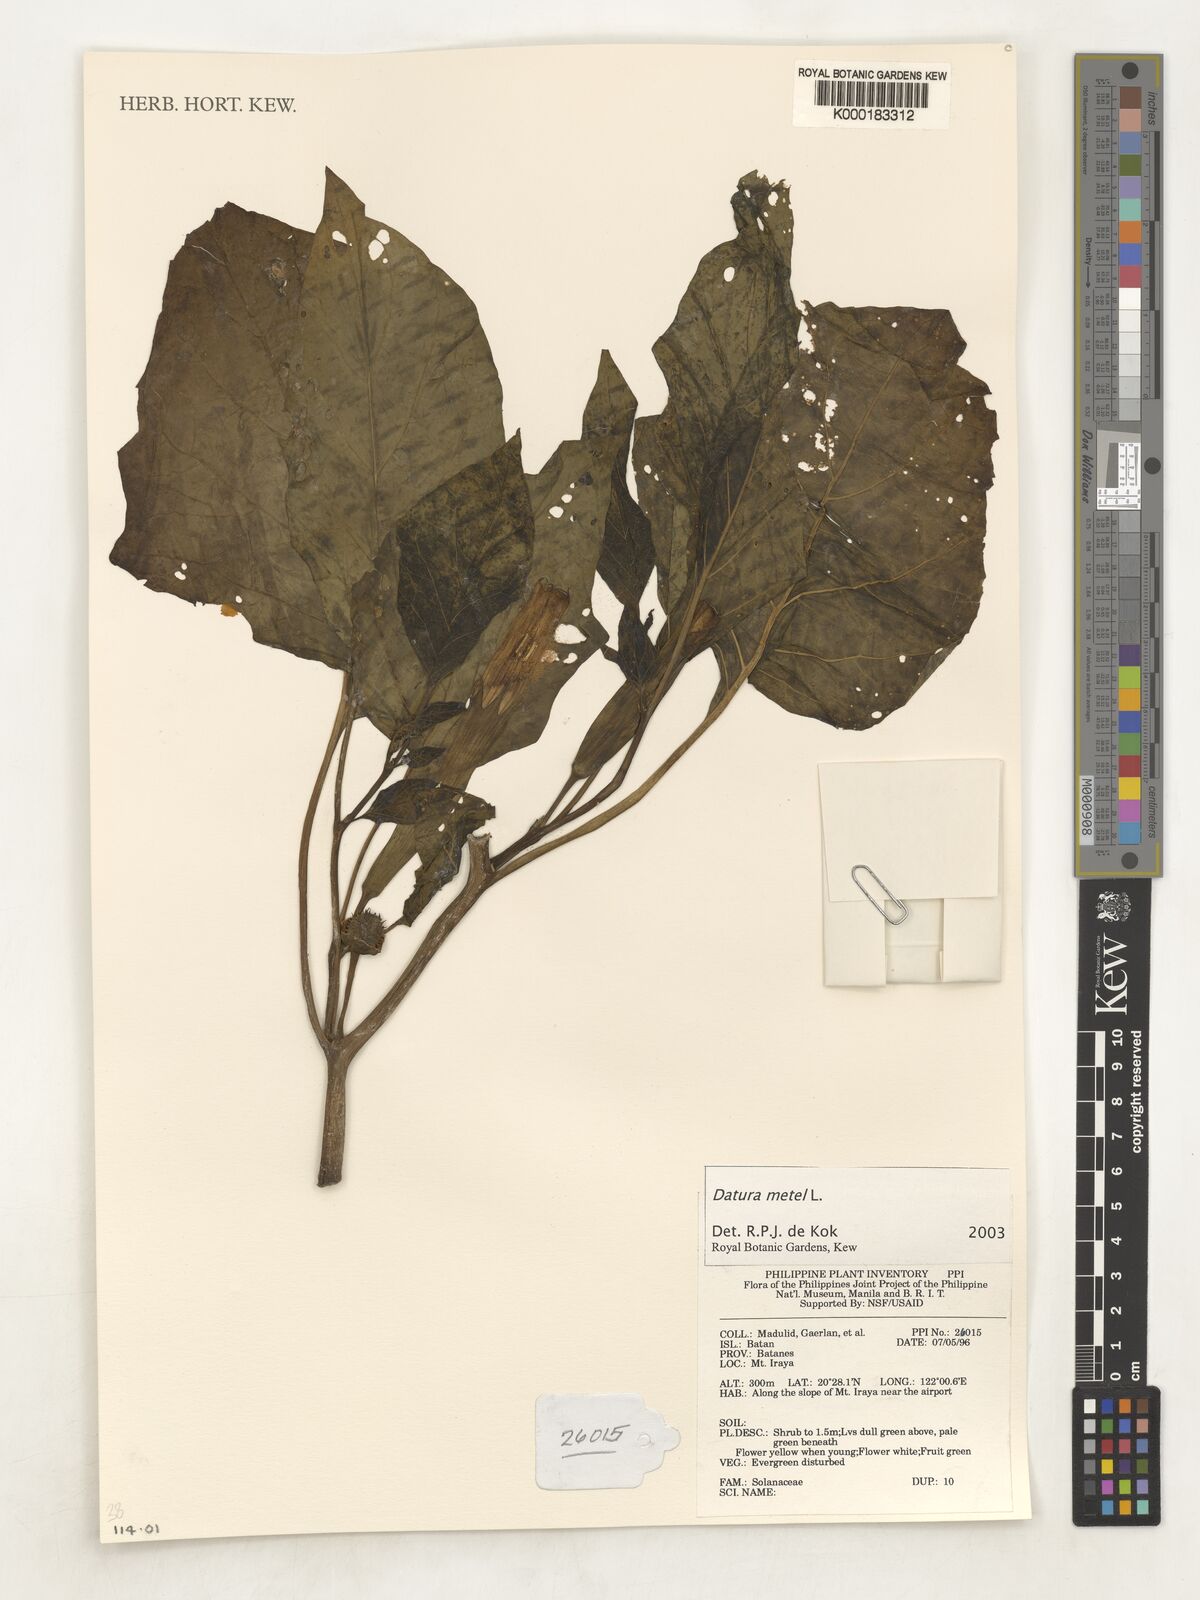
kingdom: Plantae
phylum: Tracheophyta
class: Magnoliopsida
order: Solanales
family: Solanaceae
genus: Datura
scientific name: Datura metel
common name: Jimsonweed
